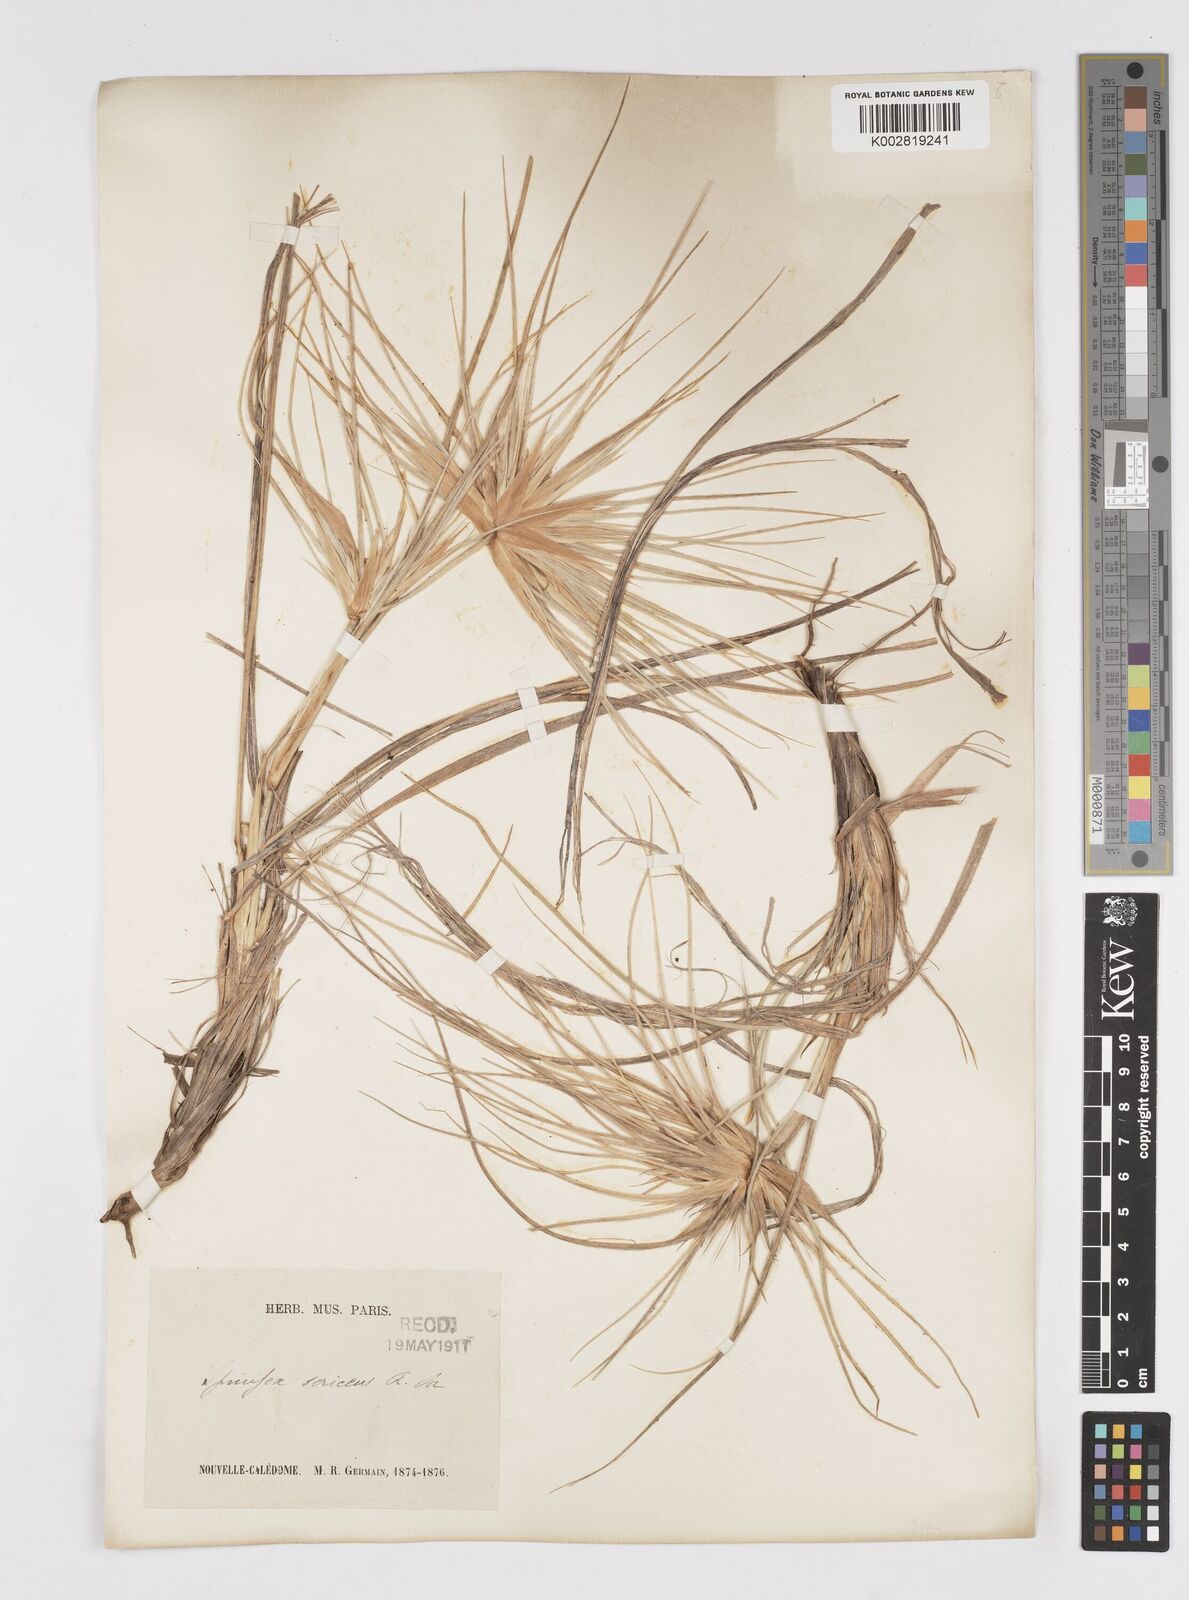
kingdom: Plantae
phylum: Tracheophyta
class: Liliopsida
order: Poales
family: Poaceae
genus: Spinifex
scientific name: Spinifex sericeus
